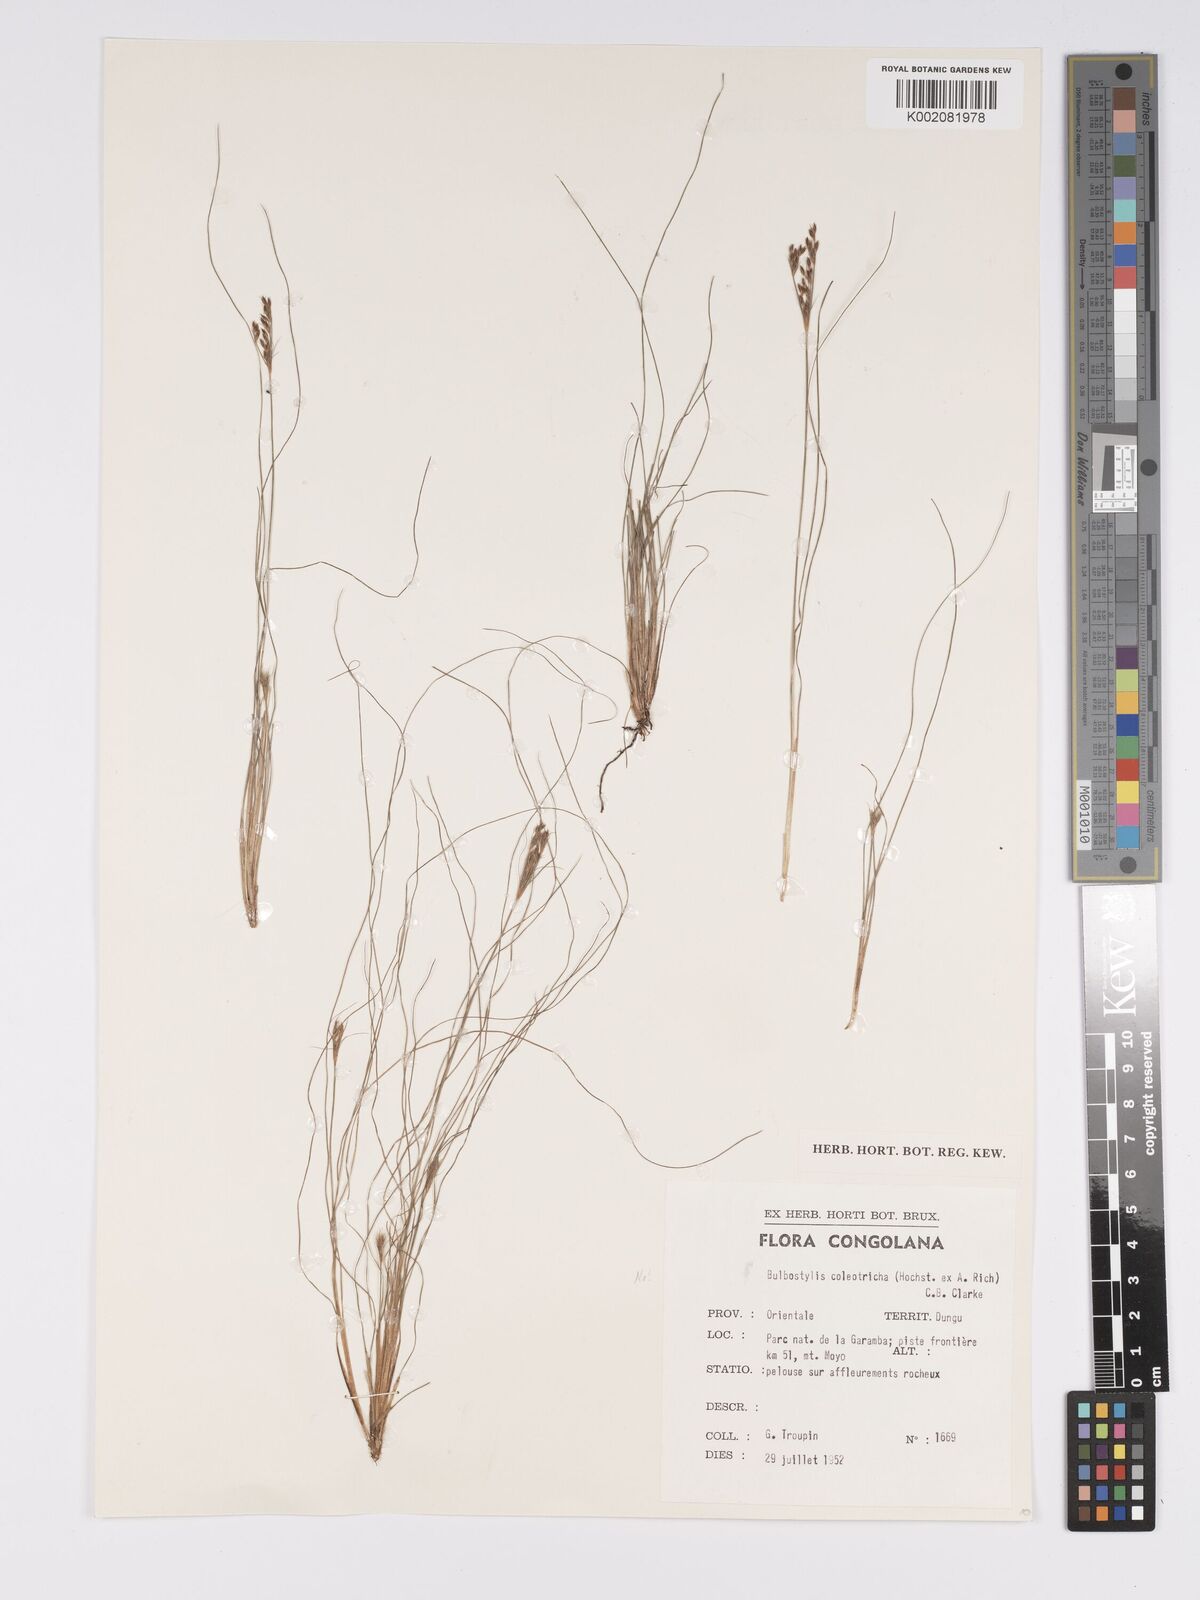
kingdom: Plantae
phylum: Tracheophyta
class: Liliopsida
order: Poales
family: Cyperaceae
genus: Bulbostylis
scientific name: Bulbostylis
